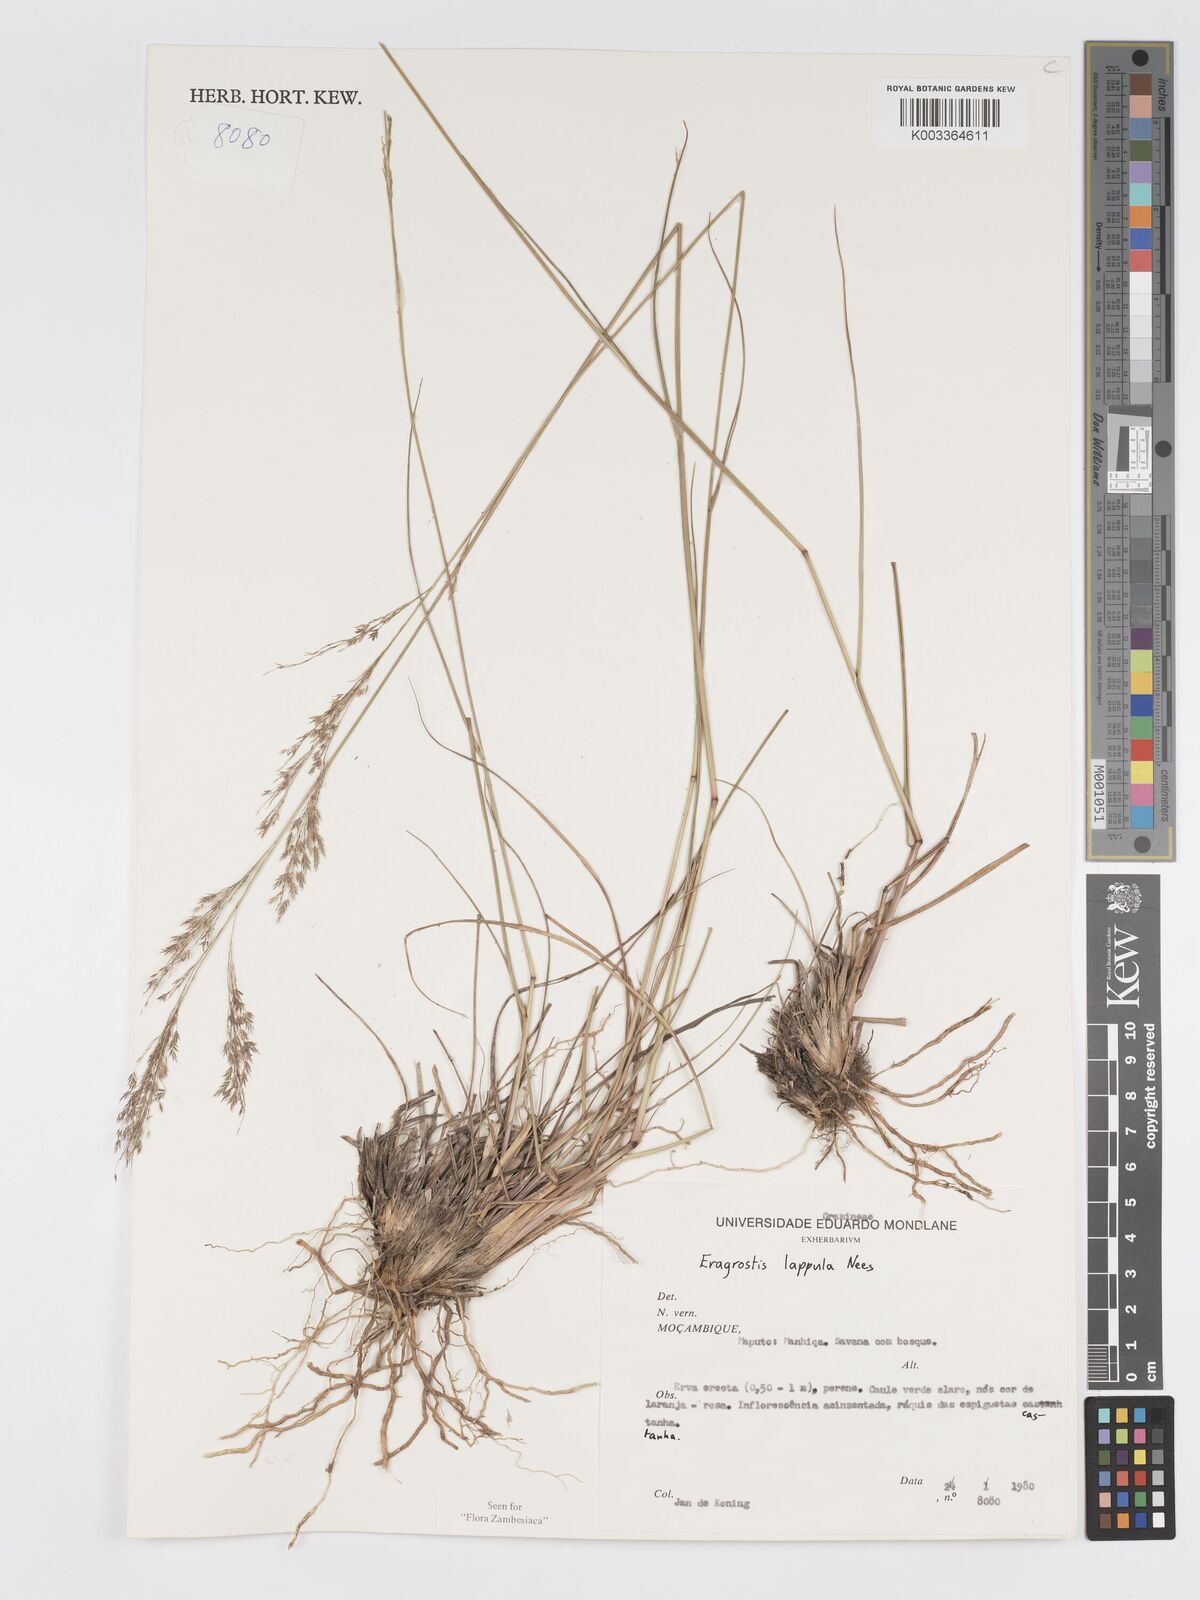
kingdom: Plantae
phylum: Tracheophyta
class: Liliopsida
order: Poales
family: Poaceae
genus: Eragrostis
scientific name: Eragrostis lappula
